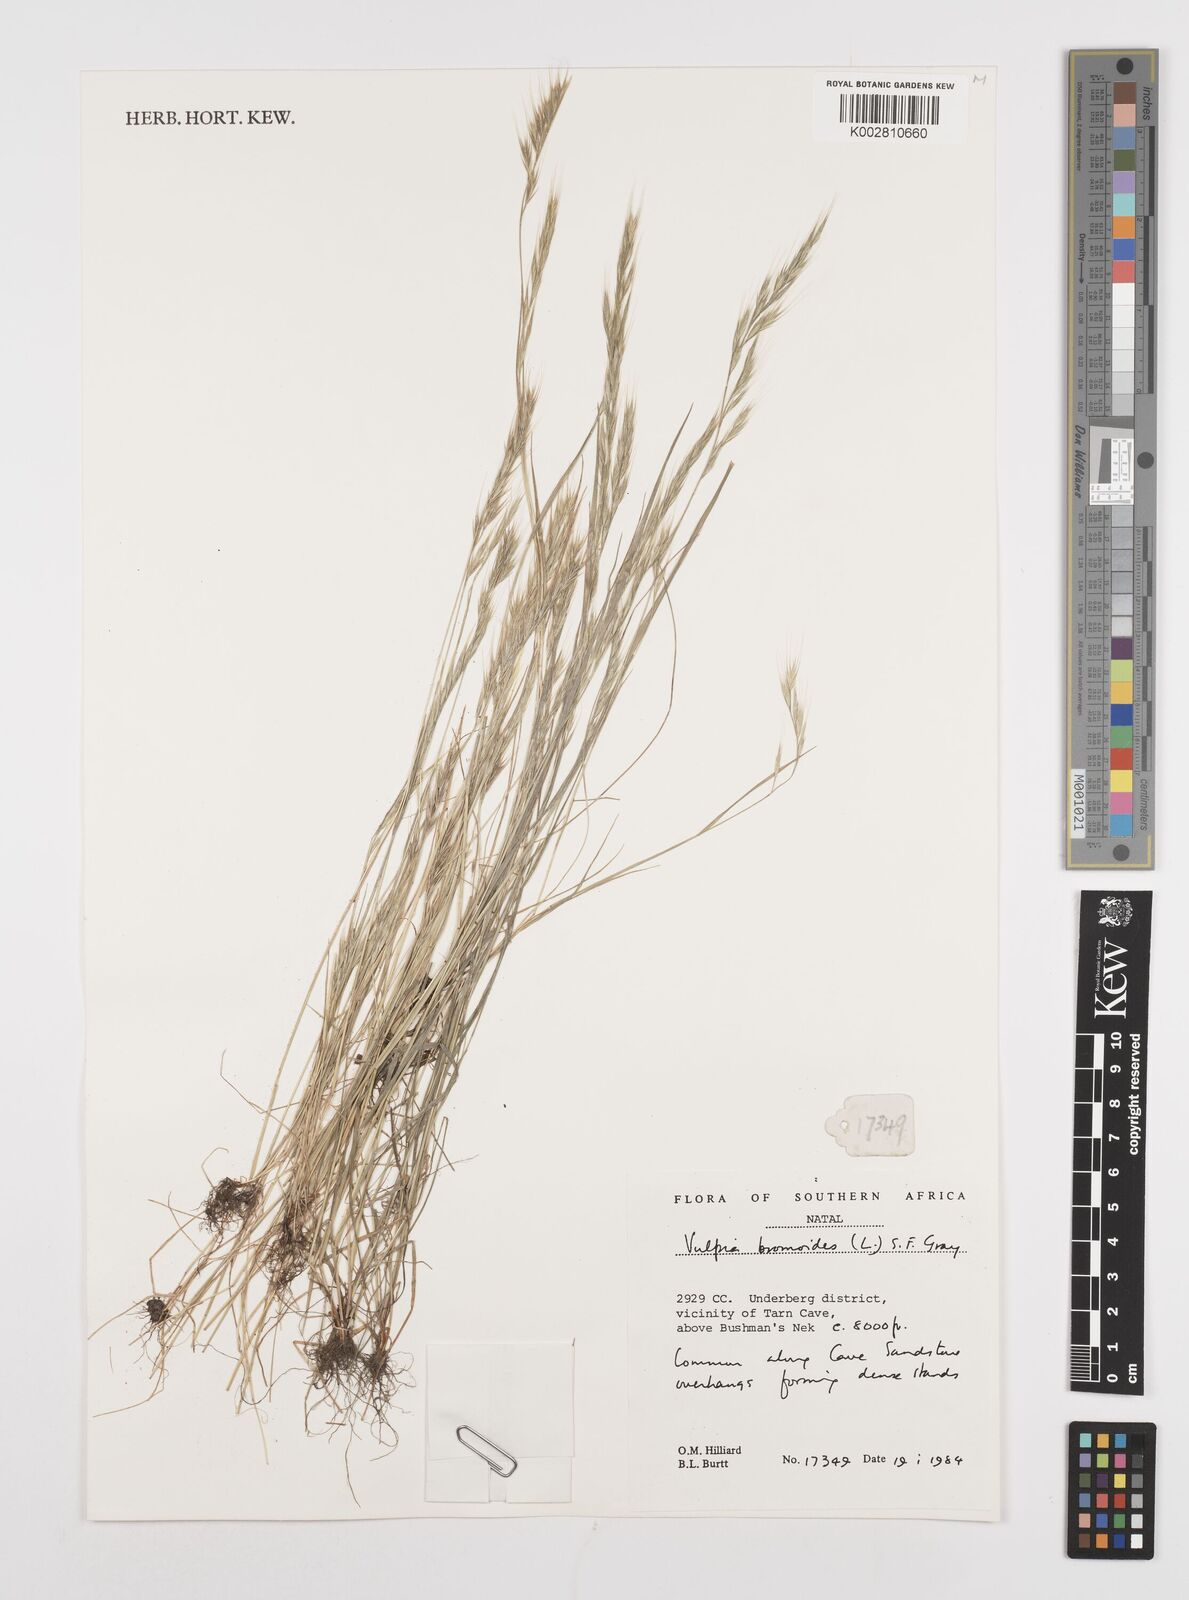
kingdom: Plantae
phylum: Tracheophyta
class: Liliopsida
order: Poales
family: Poaceae
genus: Festuca
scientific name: Festuca bromoides
